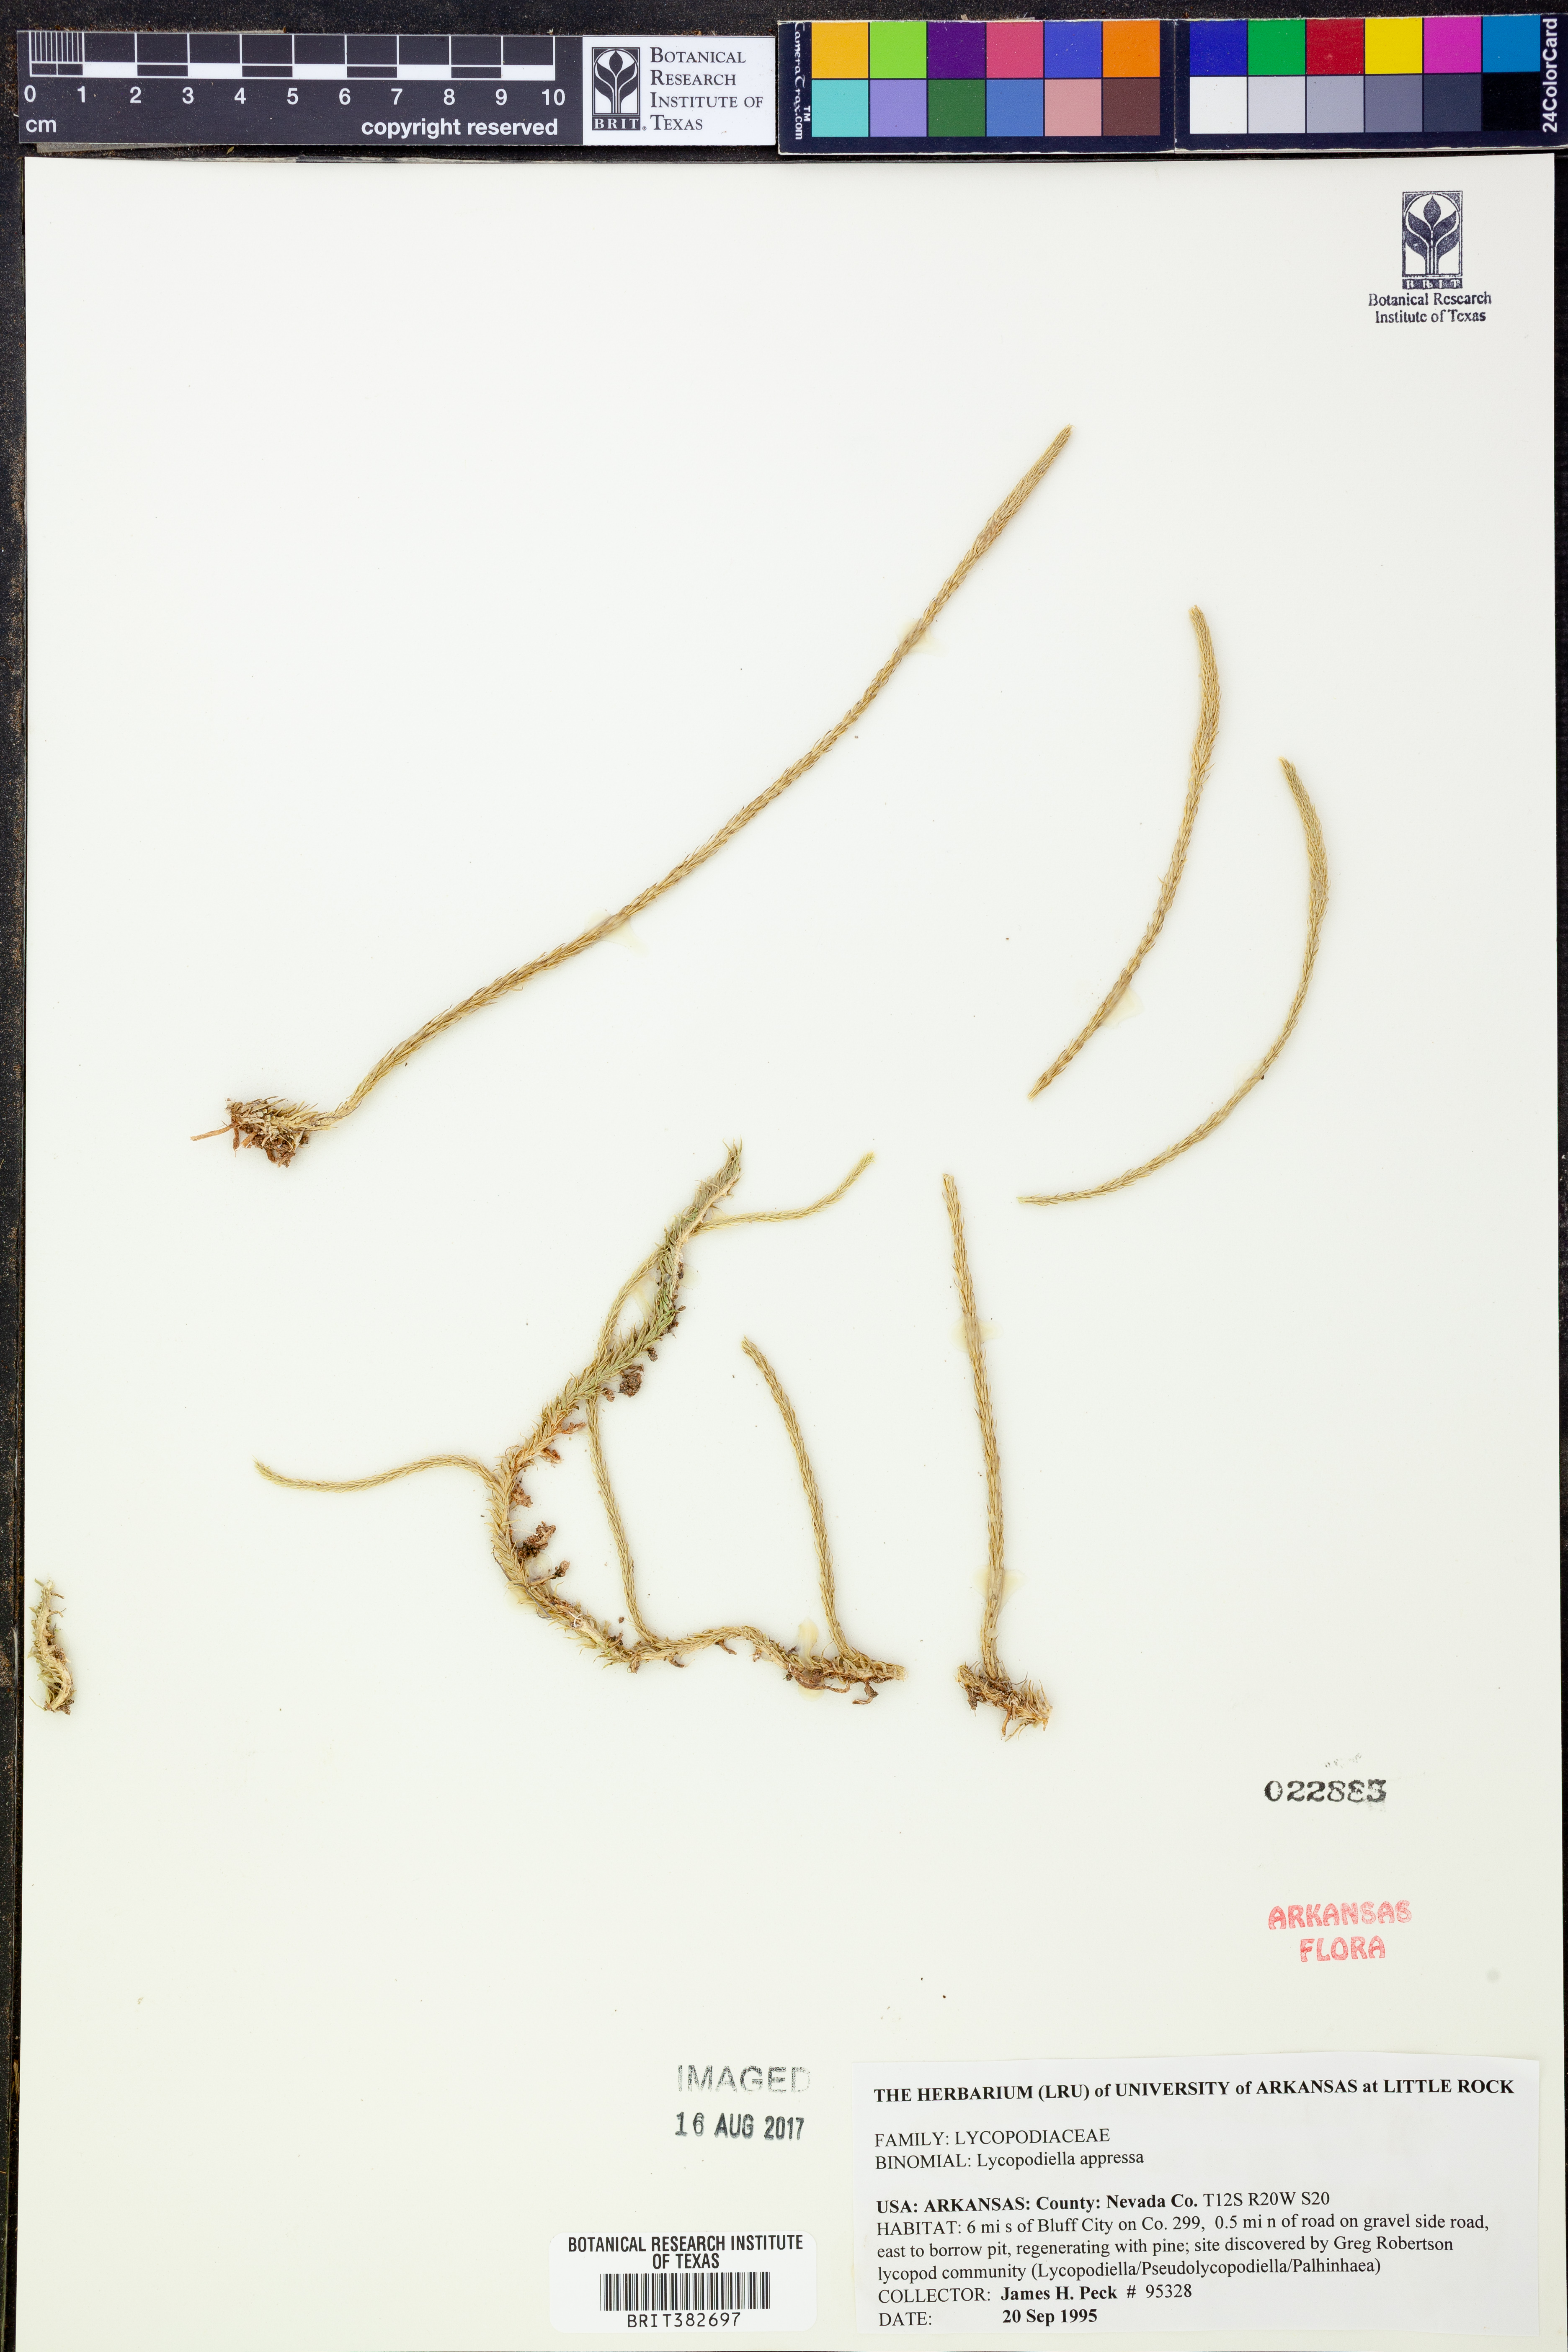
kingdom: Plantae
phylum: Tracheophyta
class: Lycopodiopsida
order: Lycopodiales
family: Lycopodiaceae
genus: Lycopodiella
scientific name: Lycopodiella appressa
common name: Appressed bog clubmoss
